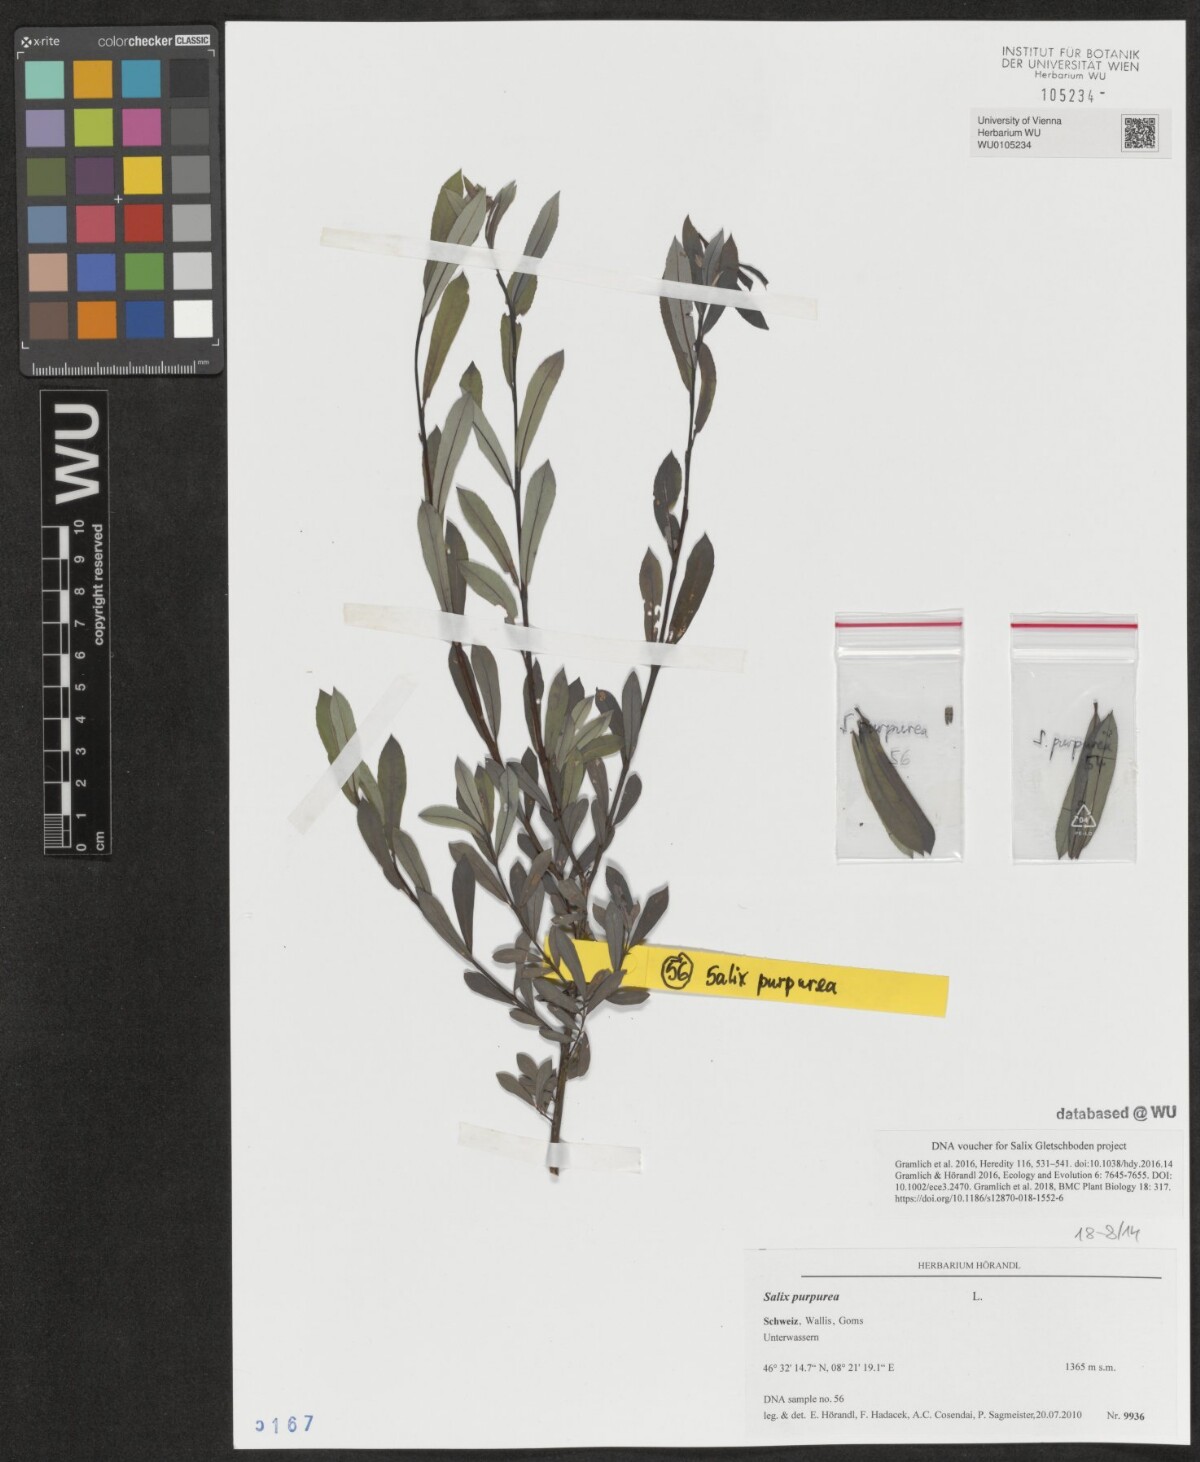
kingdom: Plantae
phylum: Tracheophyta
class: Magnoliopsida
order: Malpighiales
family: Salicaceae
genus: Salix
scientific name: Salix purpurea
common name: Purple willow
